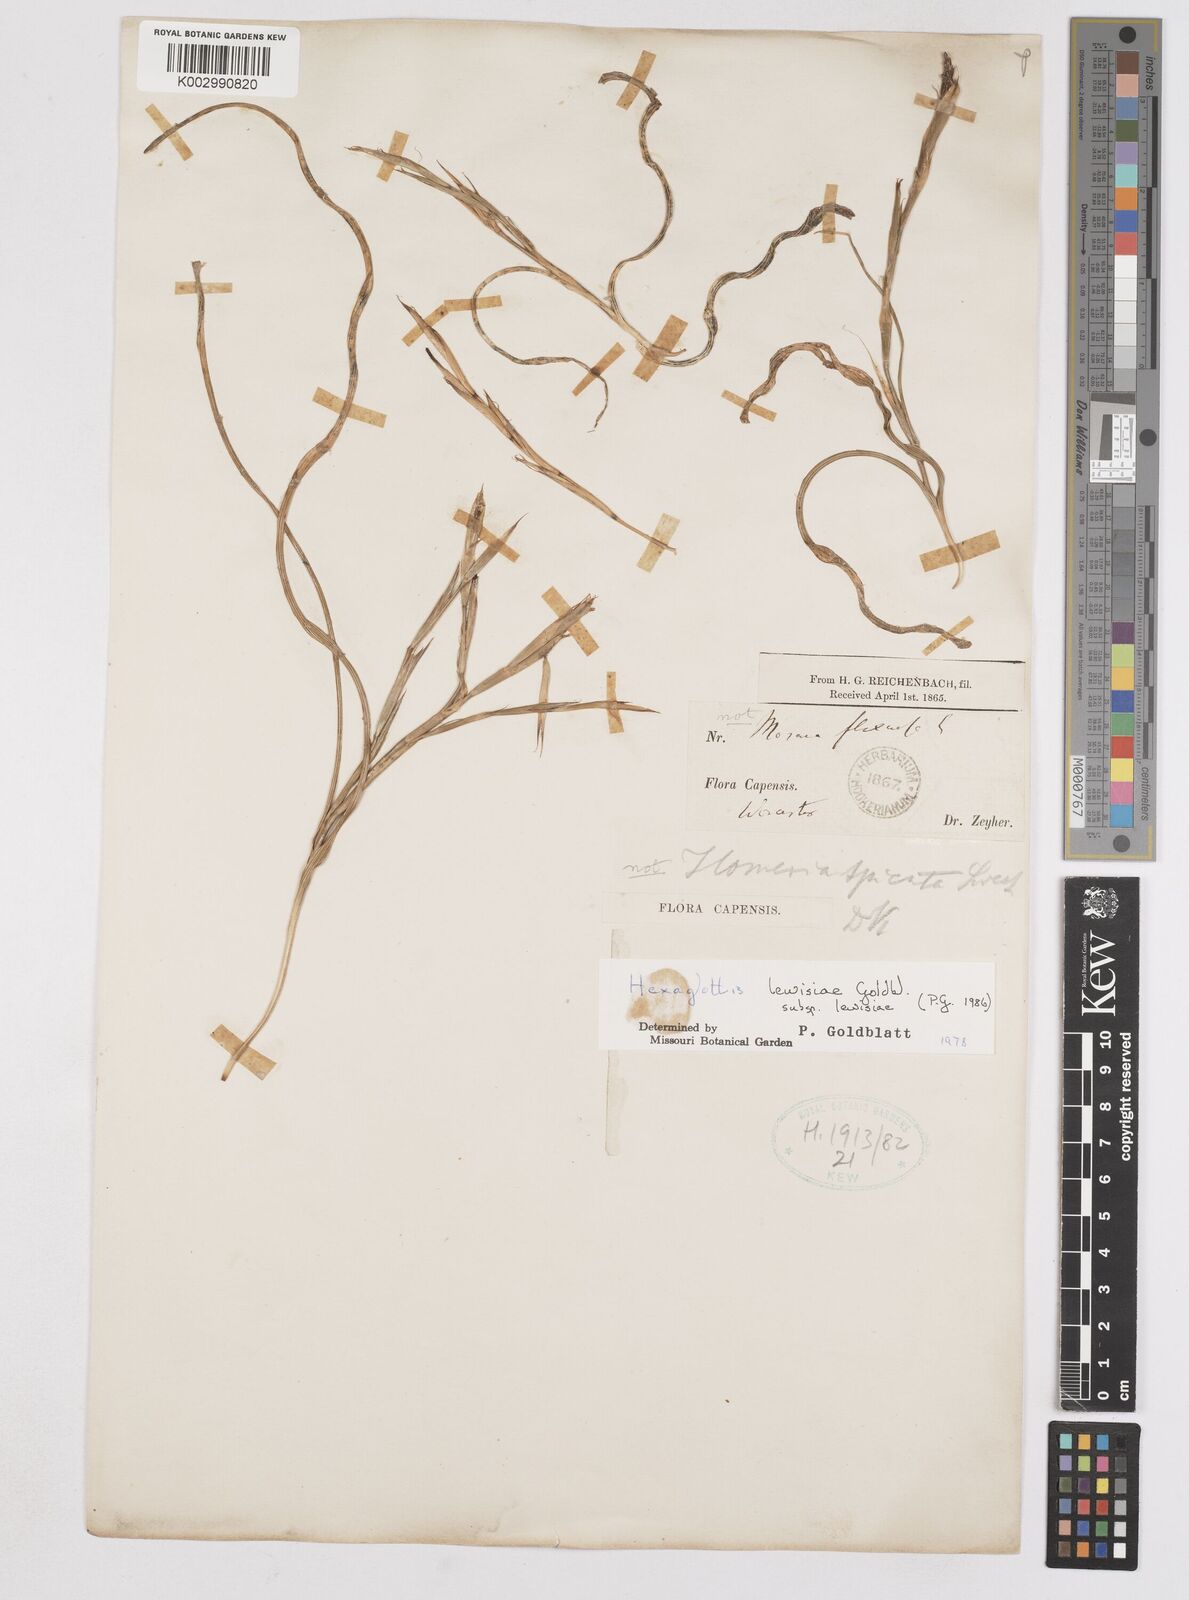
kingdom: Plantae
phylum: Tracheophyta
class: Liliopsida
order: Asparagales
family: Iridaceae
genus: Moraea
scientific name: Moraea lewisiae
